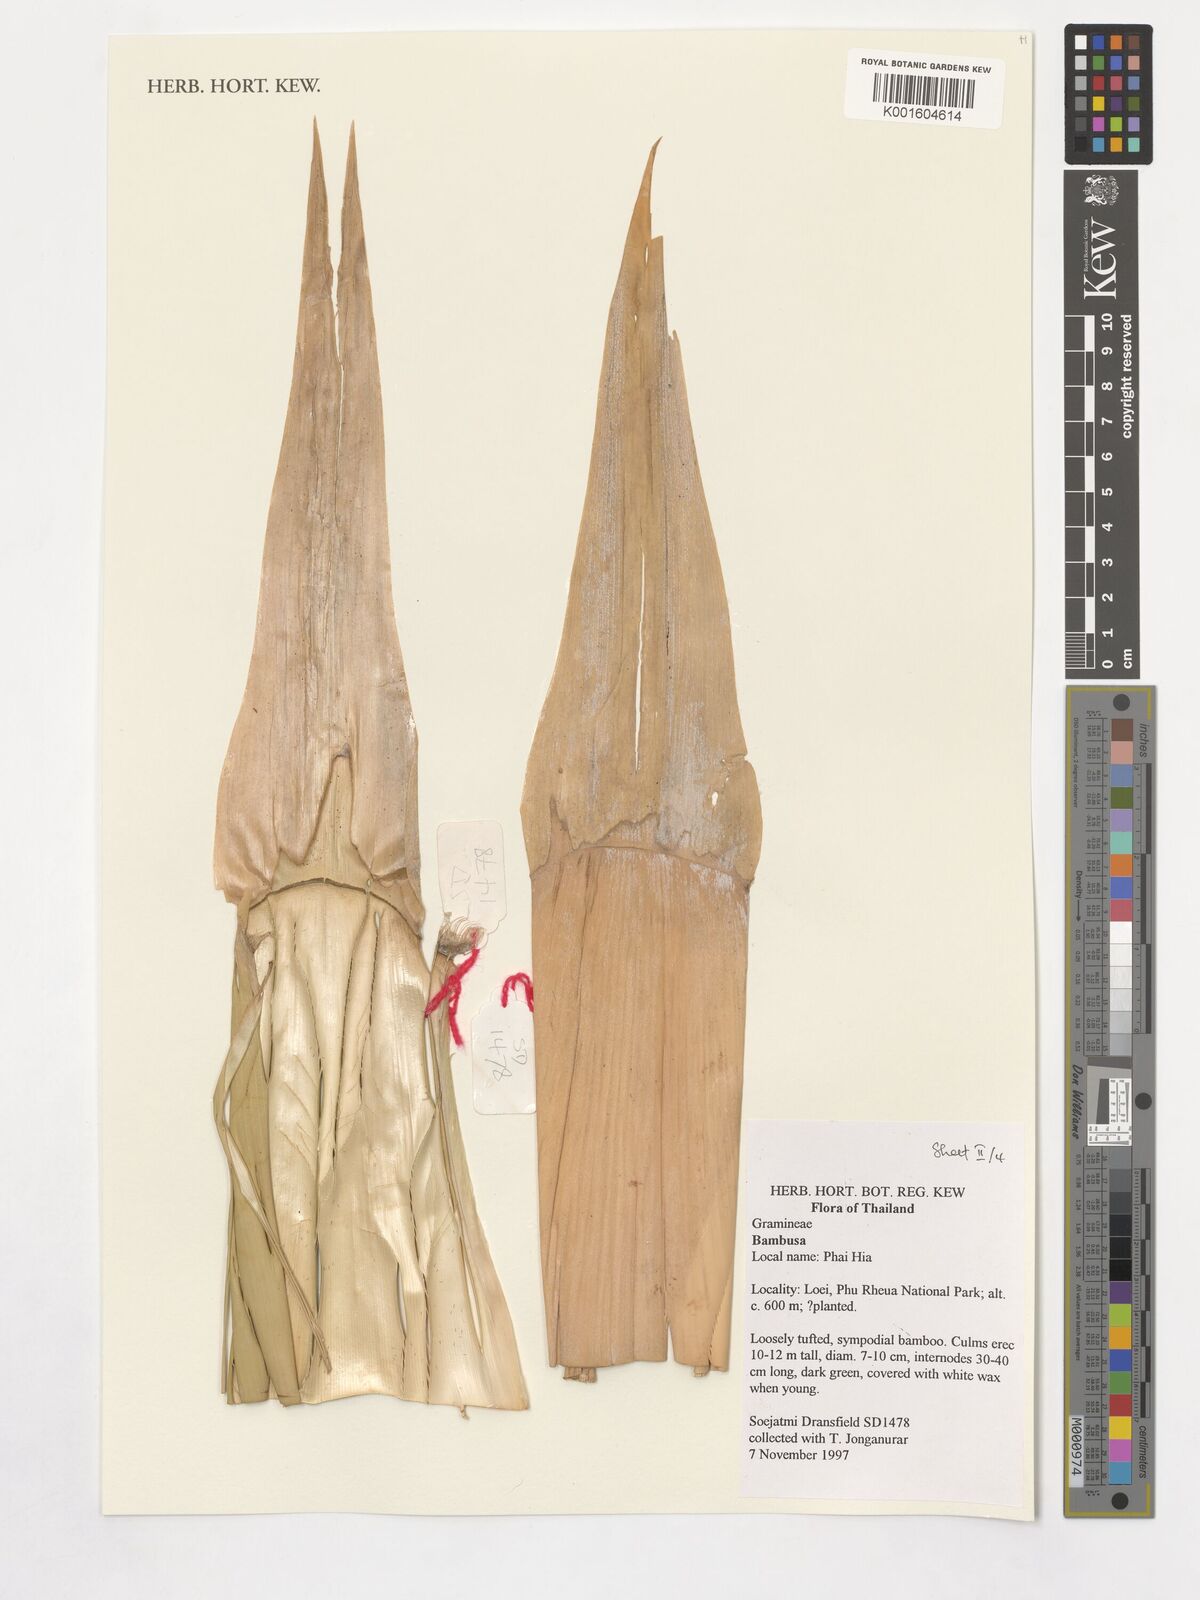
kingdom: Plantae
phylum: Tracheophyta
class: Liliopsida
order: Poales
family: Poaceae
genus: Guadua
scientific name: Guadua
